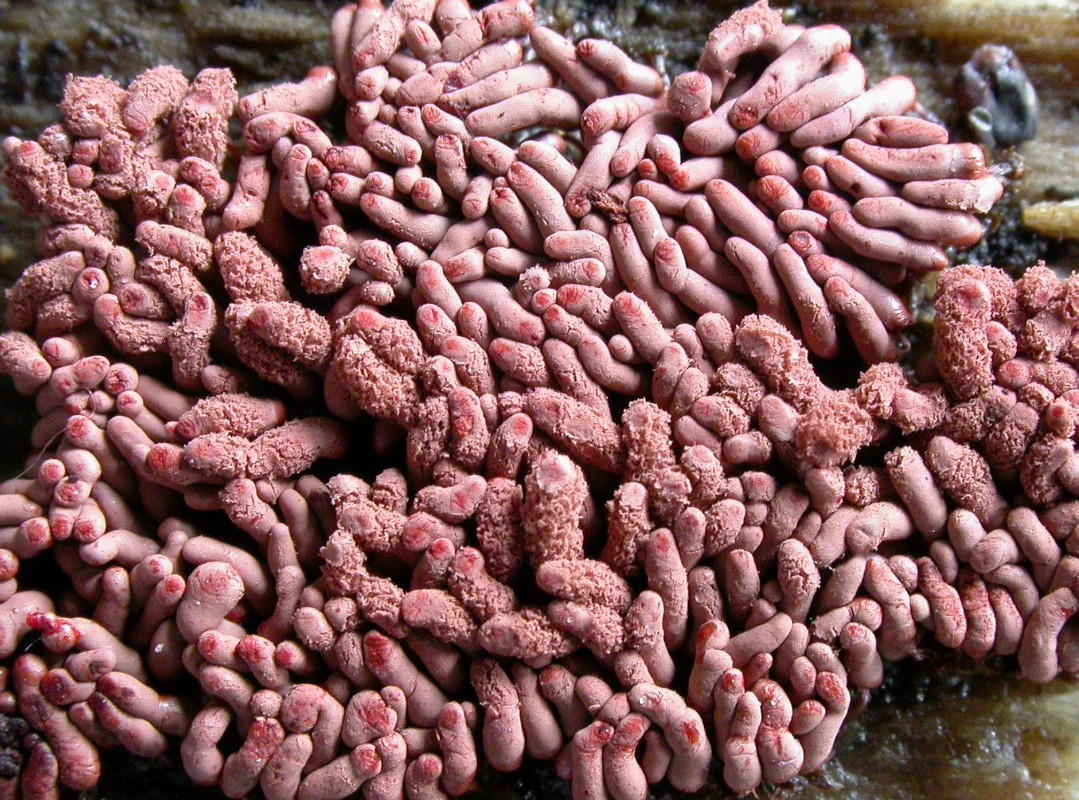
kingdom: Protozoa
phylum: Mycetozoa
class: Myxomycetes
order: Trichiales
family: Arcyriaceae
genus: Arcyria
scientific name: Arcyria stipata
